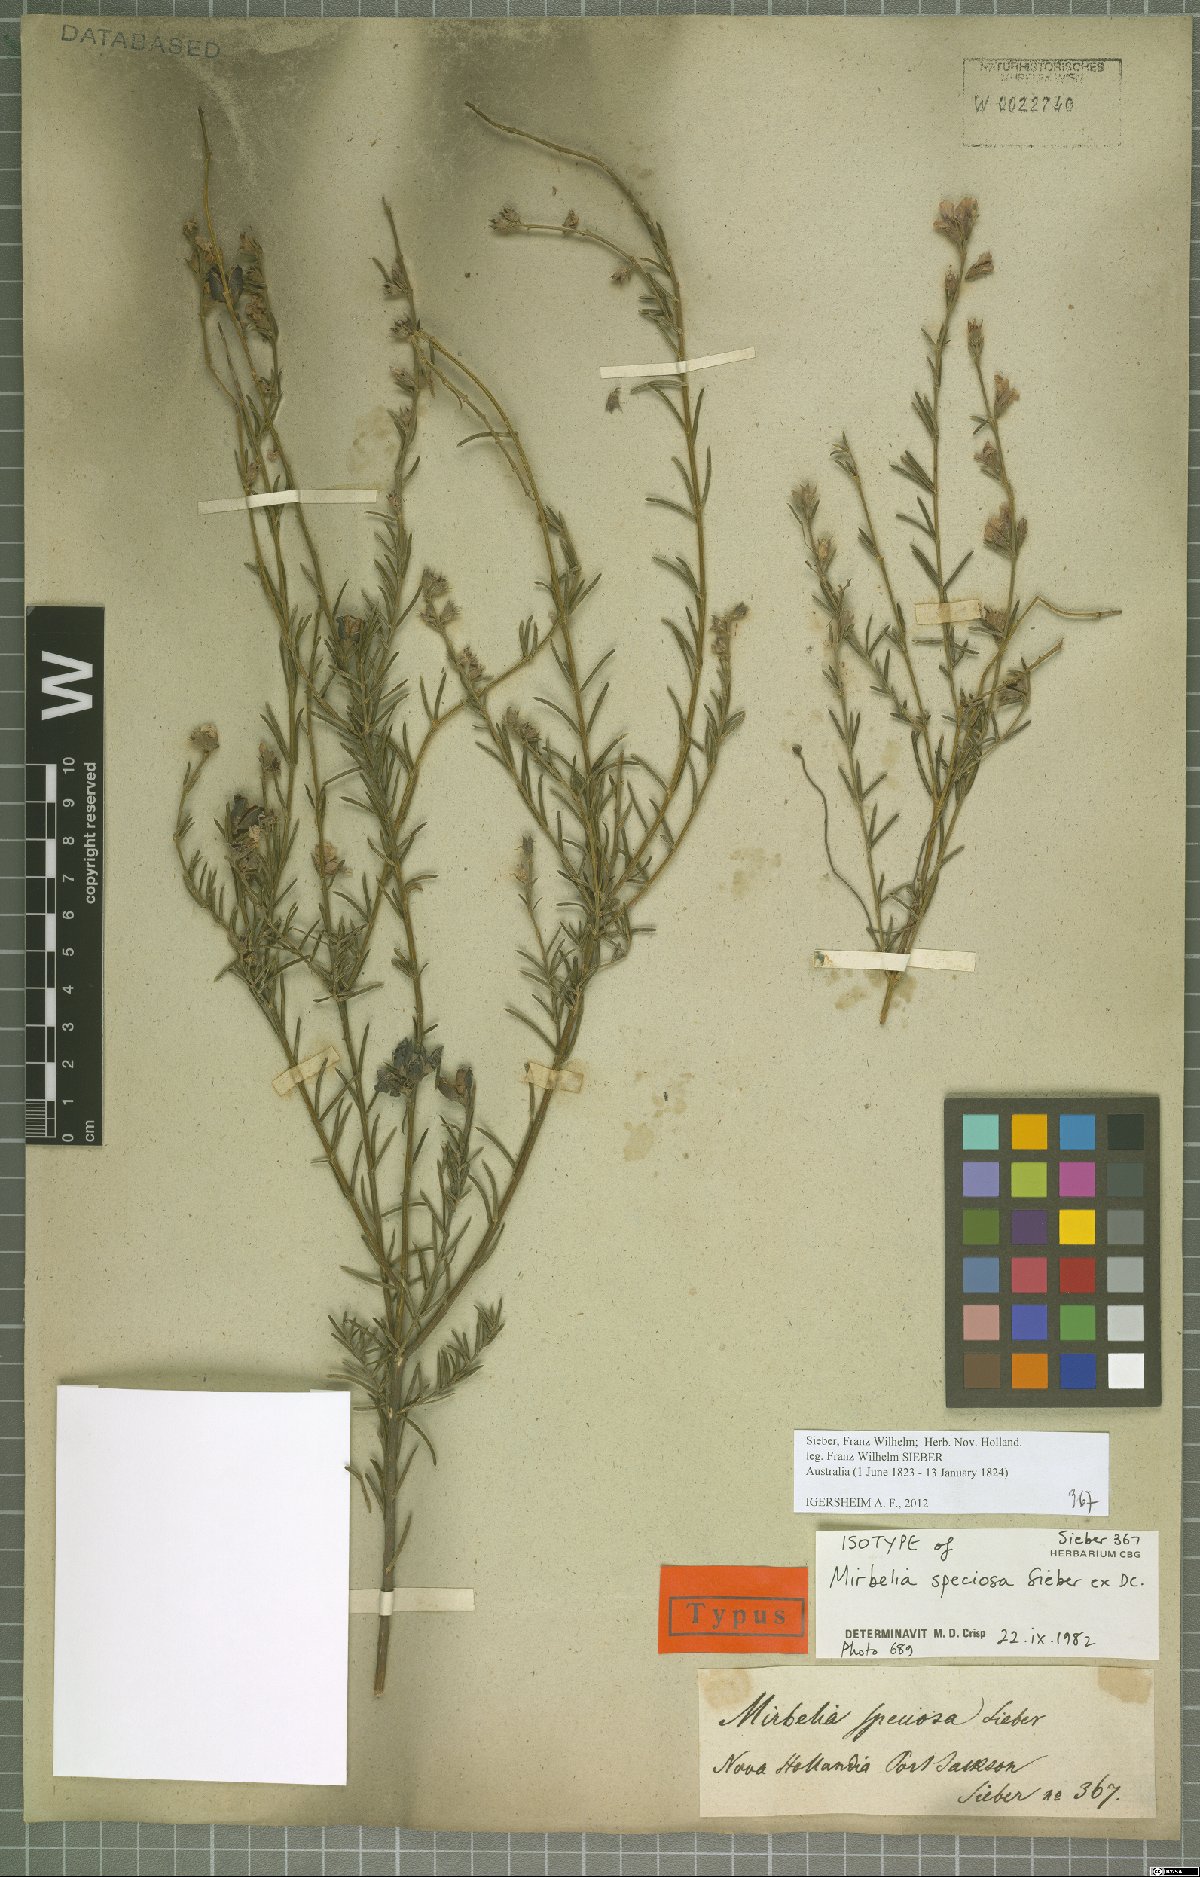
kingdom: Plantae
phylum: Tracheophyta
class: Magnoliopsida
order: Fabales
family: Fabaceae
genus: Mirbelia
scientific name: Mirbelia speciosa
